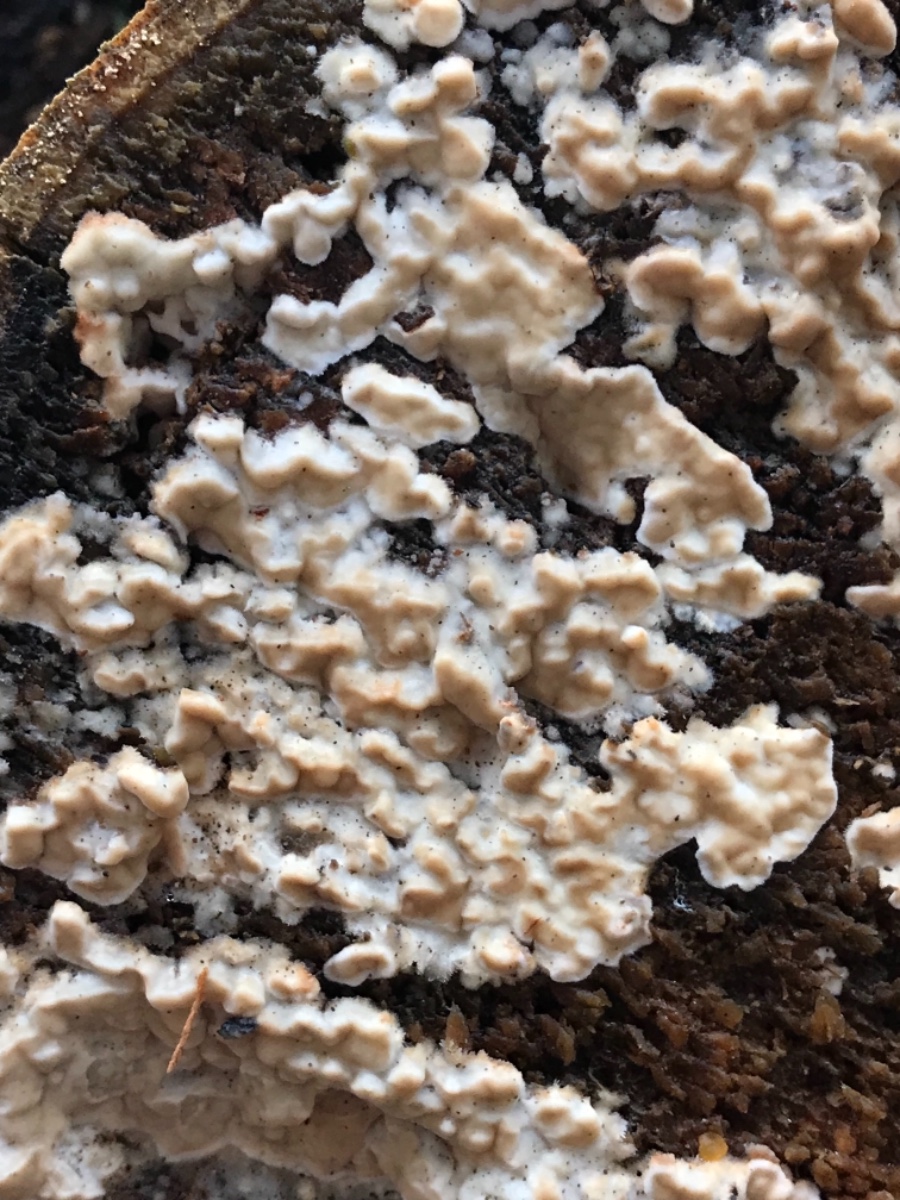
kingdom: Fungi
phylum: Basidiomycota
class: Agaricomycetes
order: Agaricales
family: Physalacriaceae
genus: Cylindrobasidium
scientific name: Cylindrobasidium evolvens
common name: sprækkehinde
